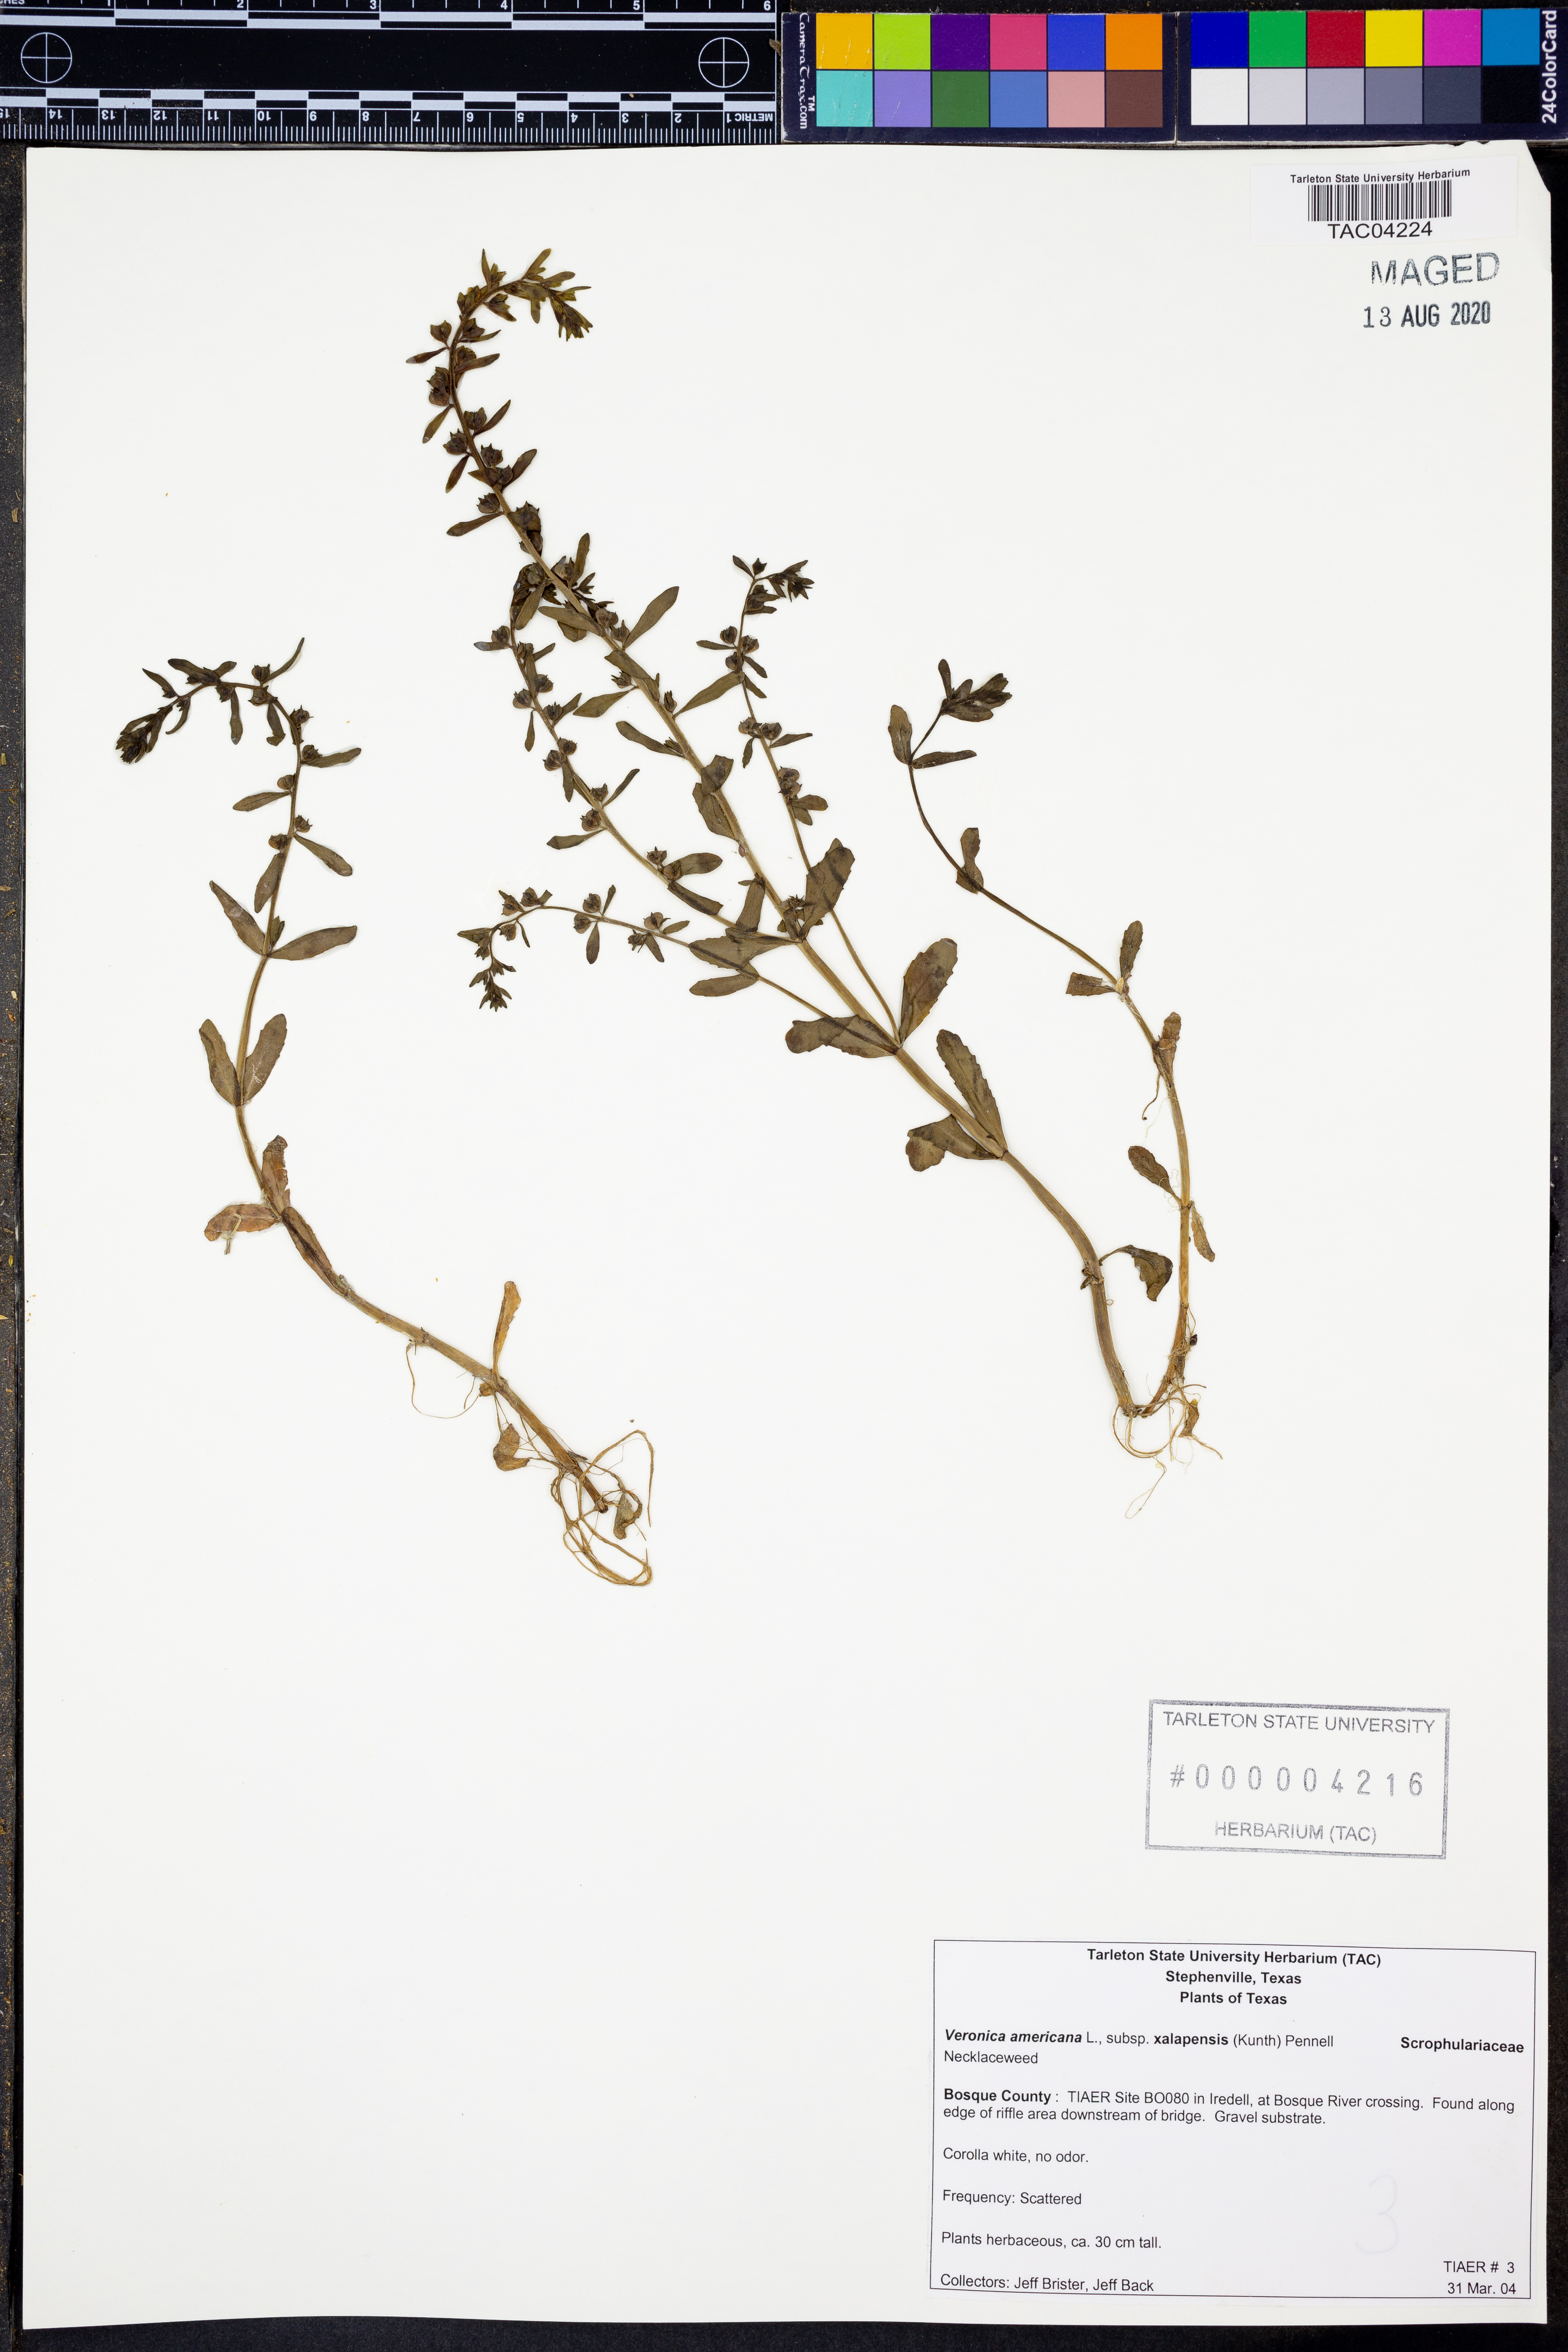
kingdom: Plantae
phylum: Tracheophyta
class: Magnoliopsida
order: Lamiales
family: Plantaginaceae
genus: Veronica
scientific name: Veronica americana
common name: American brooklime
